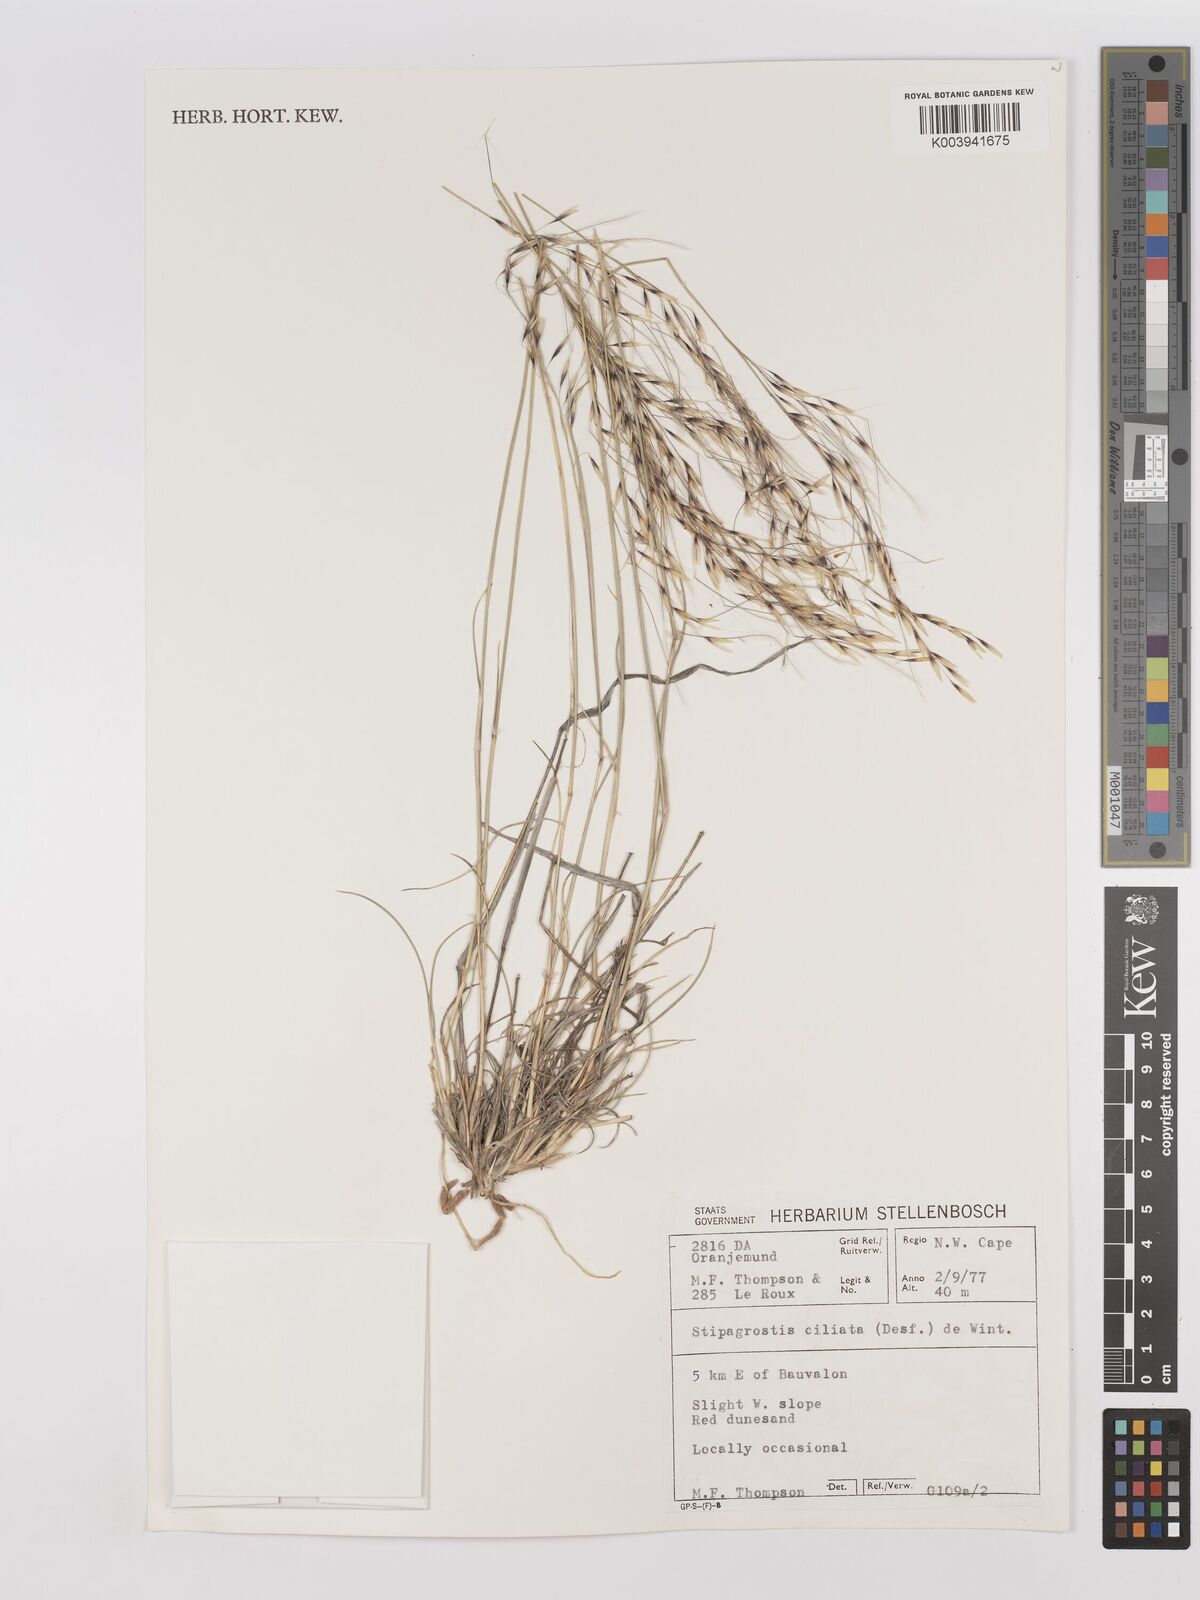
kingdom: Plantae
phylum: Tracheophyta
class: Liliopsida
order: Poales
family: Poaceae
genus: Stipagrostis
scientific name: Stipagrostis ciliata
